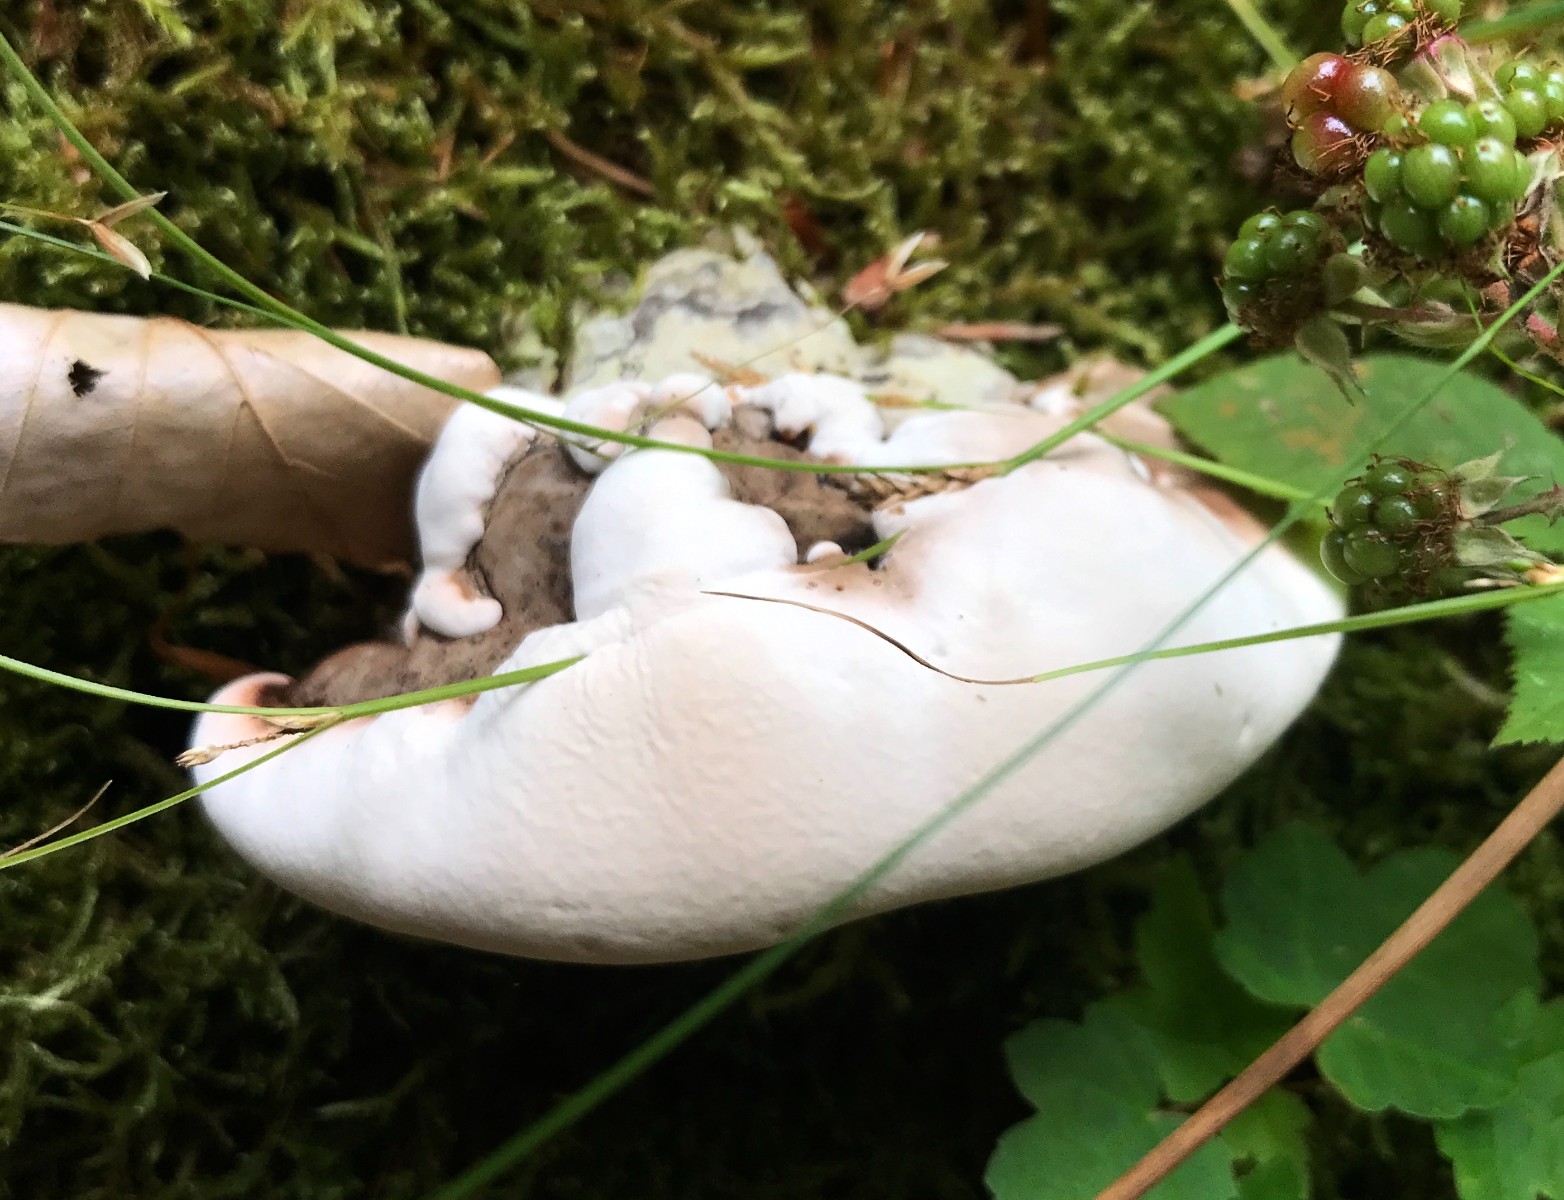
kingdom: Fungi
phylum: Basidiomycota
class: Agaricomycetes
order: Polyporales
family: Polyporaceae
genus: Ganoderma
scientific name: Ganoderma applanatum
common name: flad lakporesvamp
